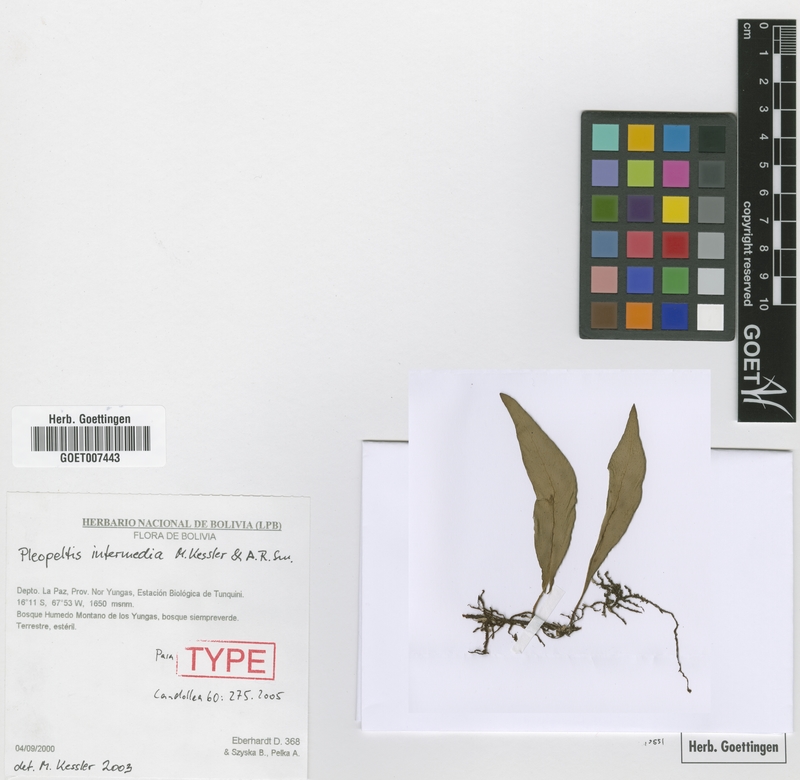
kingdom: Plantae
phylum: Tracheophyta
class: Polypodiopsida
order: Polypodiales
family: Polypodiaceae
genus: Pleopeltis
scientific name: Pleopeltis intermedia
